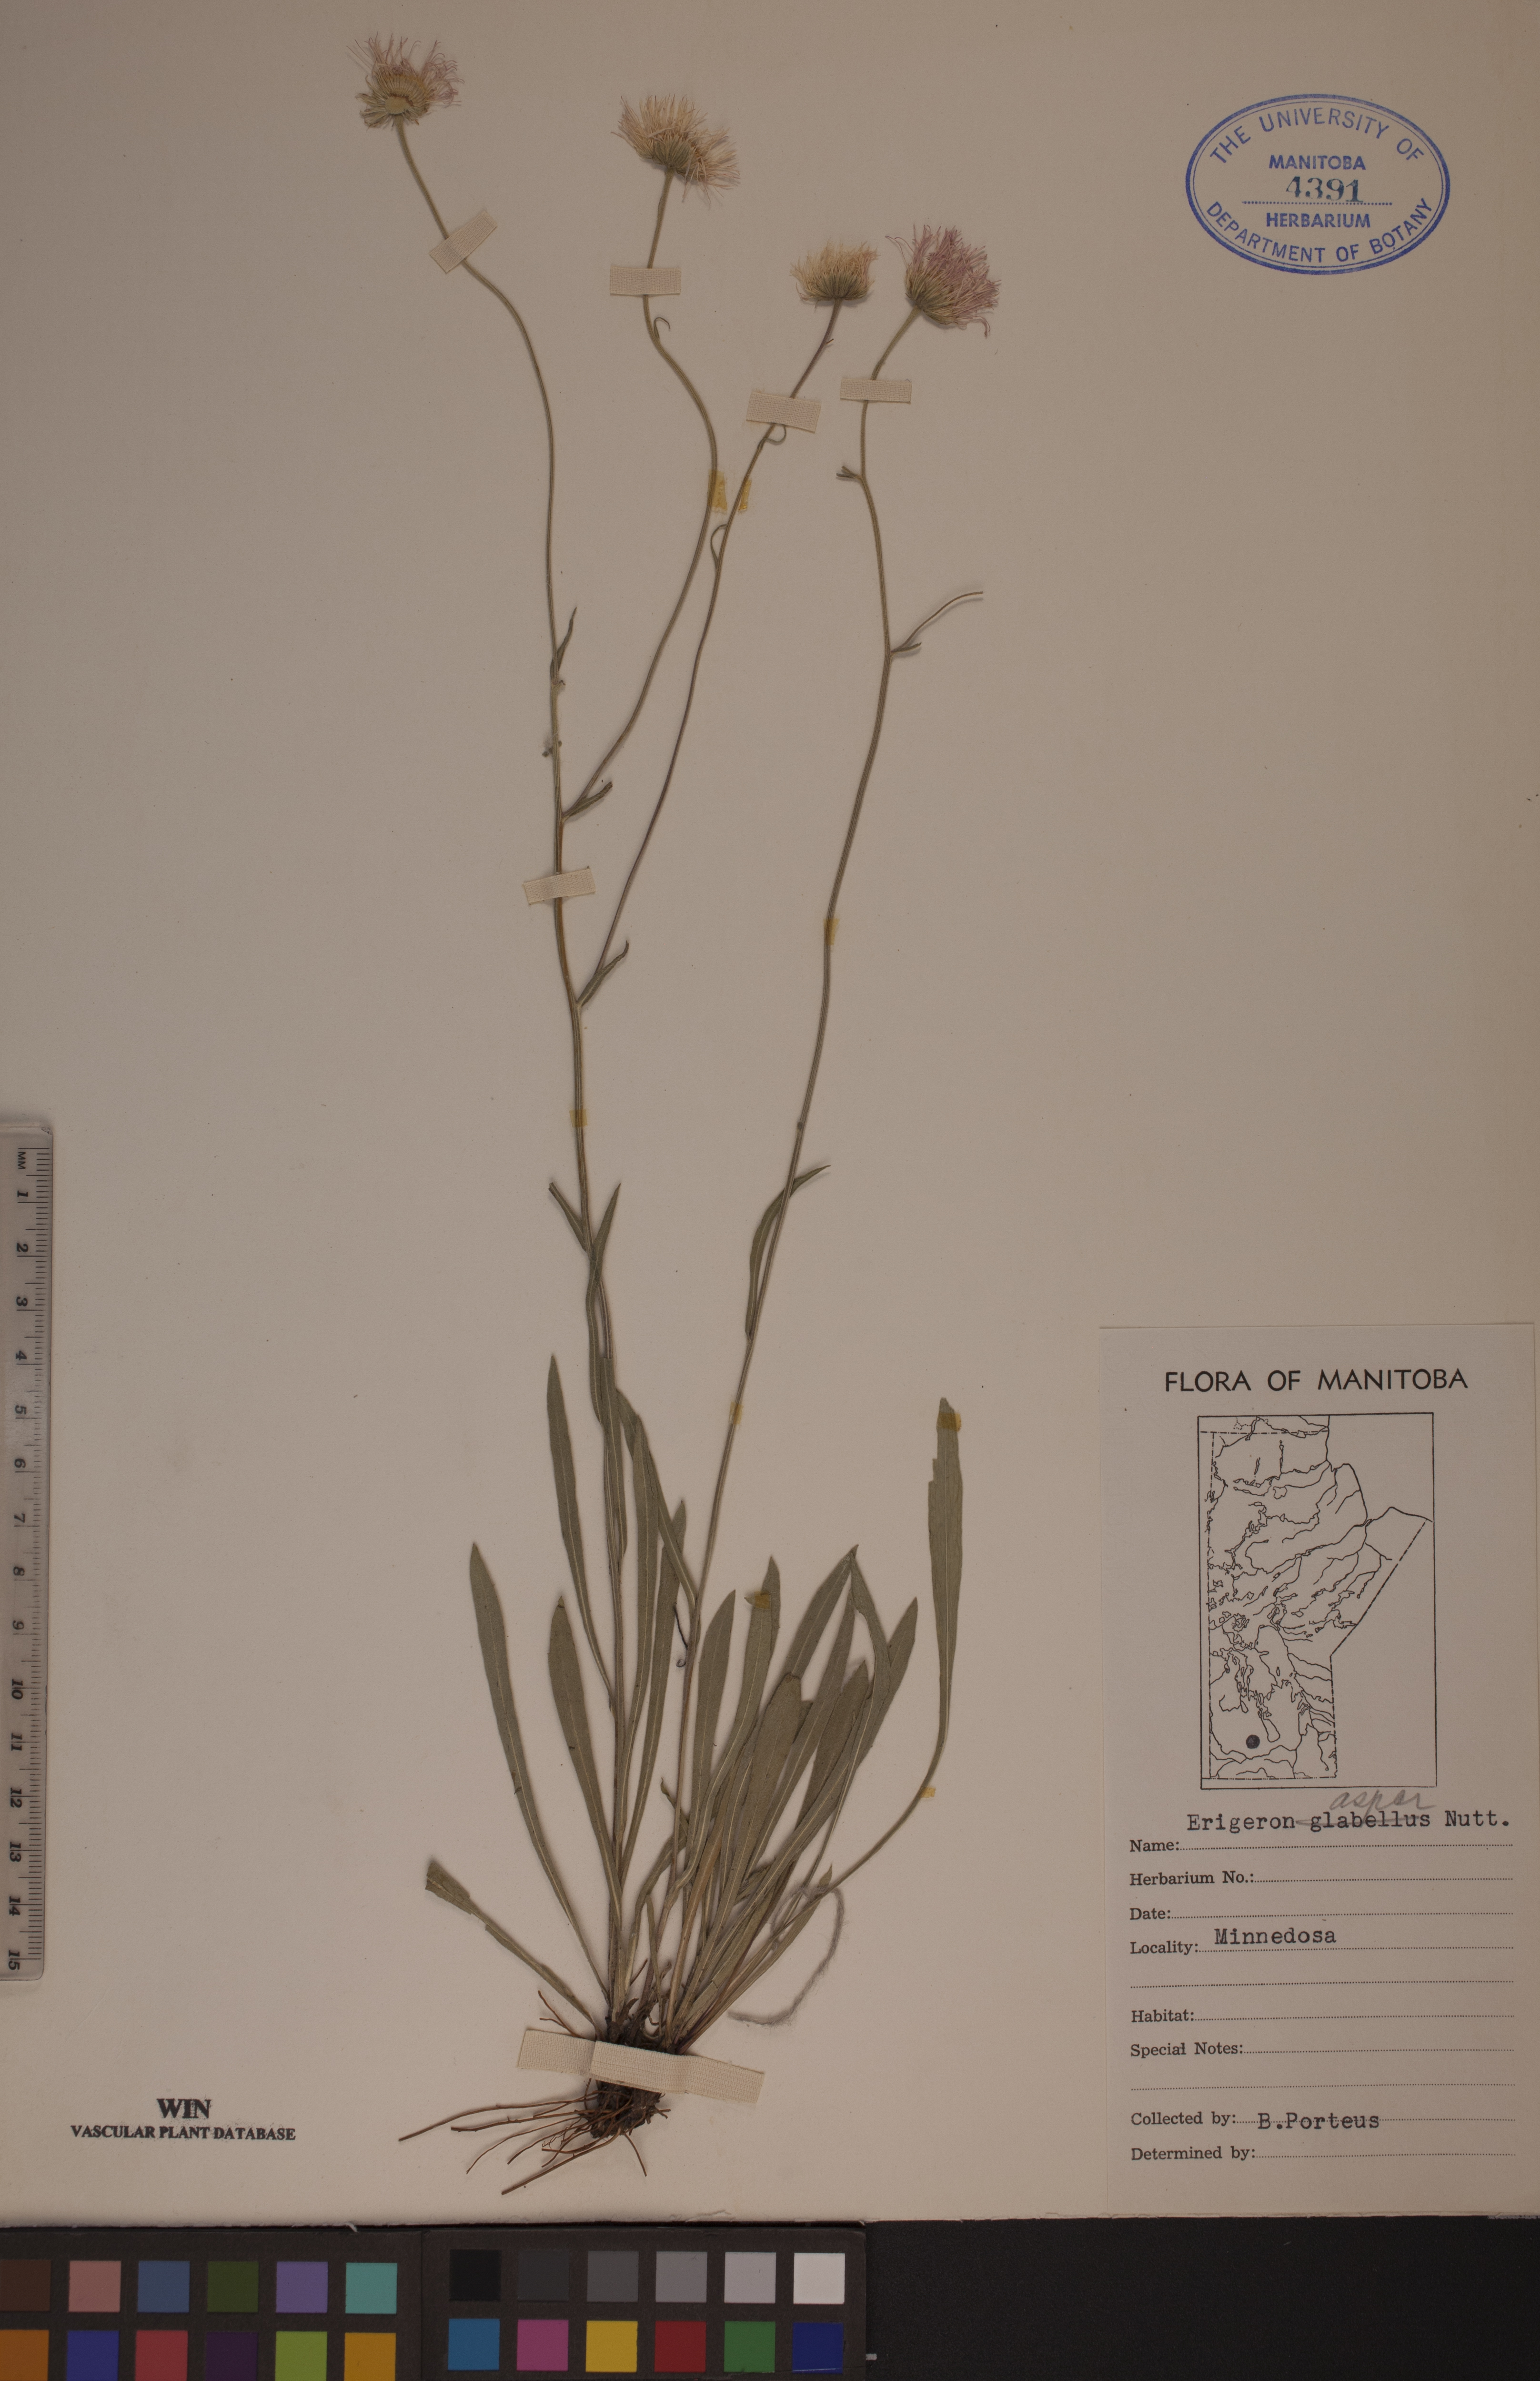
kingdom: Plantae
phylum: Tracheophyta
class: Magnoliopsida
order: Asterales
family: Asteraceae
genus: Erigeron
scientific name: Erigeron glabellus
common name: Smooth fleabane
